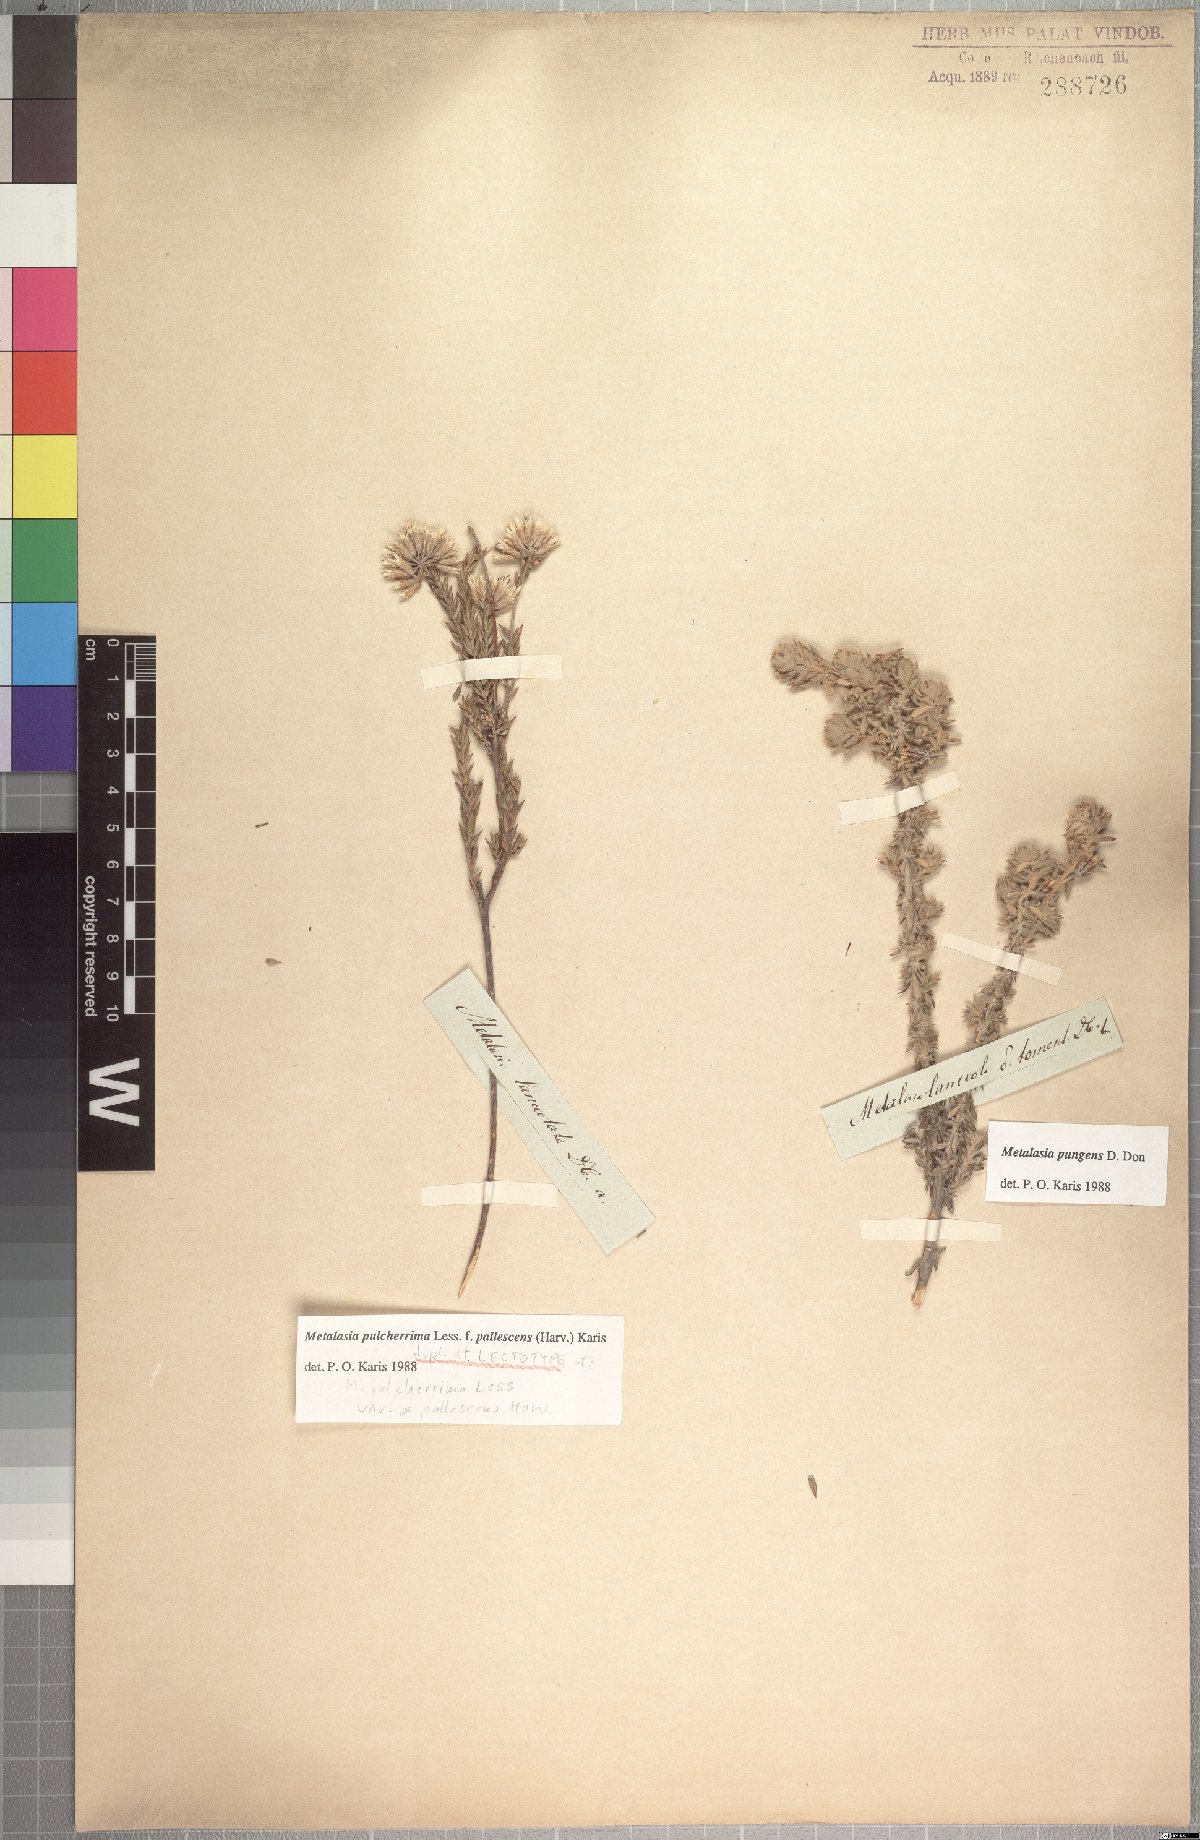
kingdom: Plantae
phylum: Tracheophyta
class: Magnoliopsida
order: Asterales
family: Asteraceae
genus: Metalasia
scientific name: Metalasia pulcherrima
